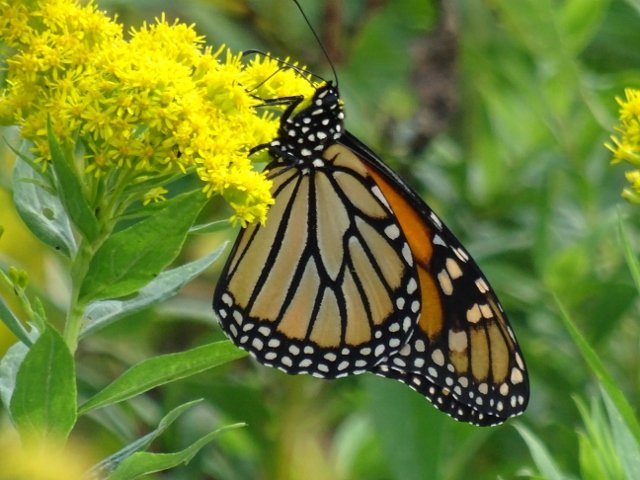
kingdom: Animalia
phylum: Arthropoda
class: Insecta
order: Lepidoptera
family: Nymphalidae
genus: Danaus
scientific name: Danaus plexippus
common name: Monarch
